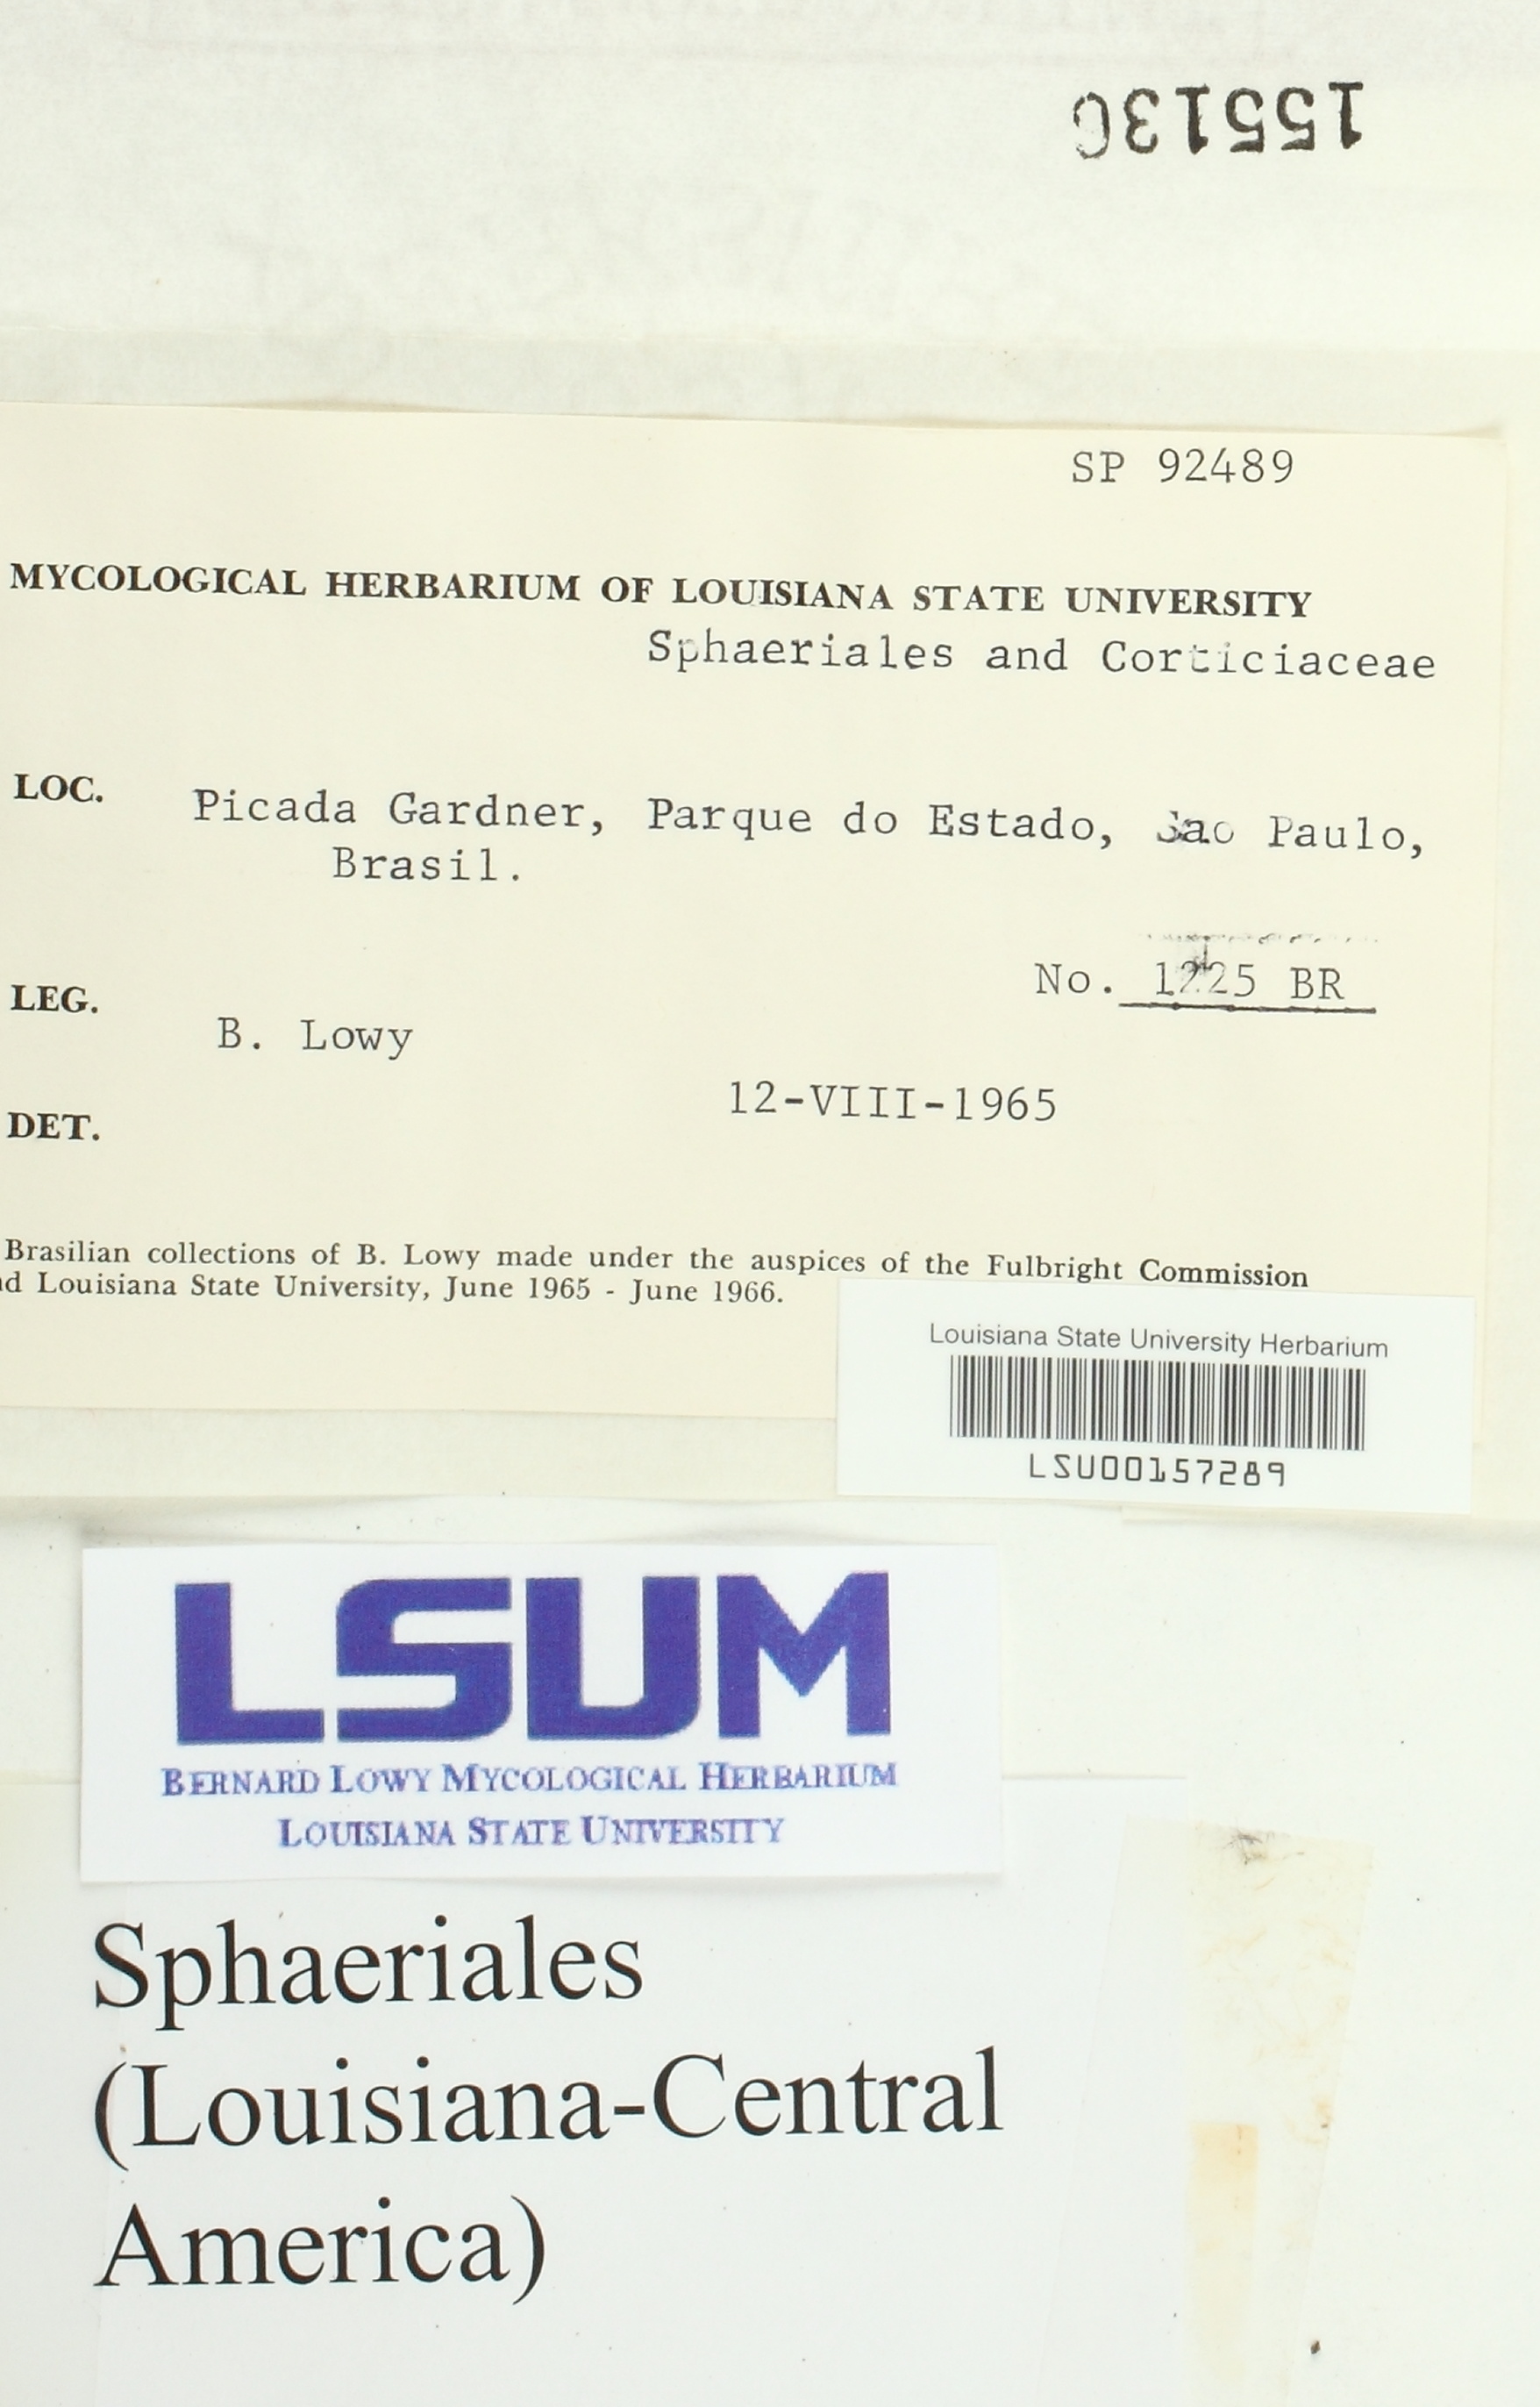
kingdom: Fungi
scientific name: Fungi
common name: Fungi
